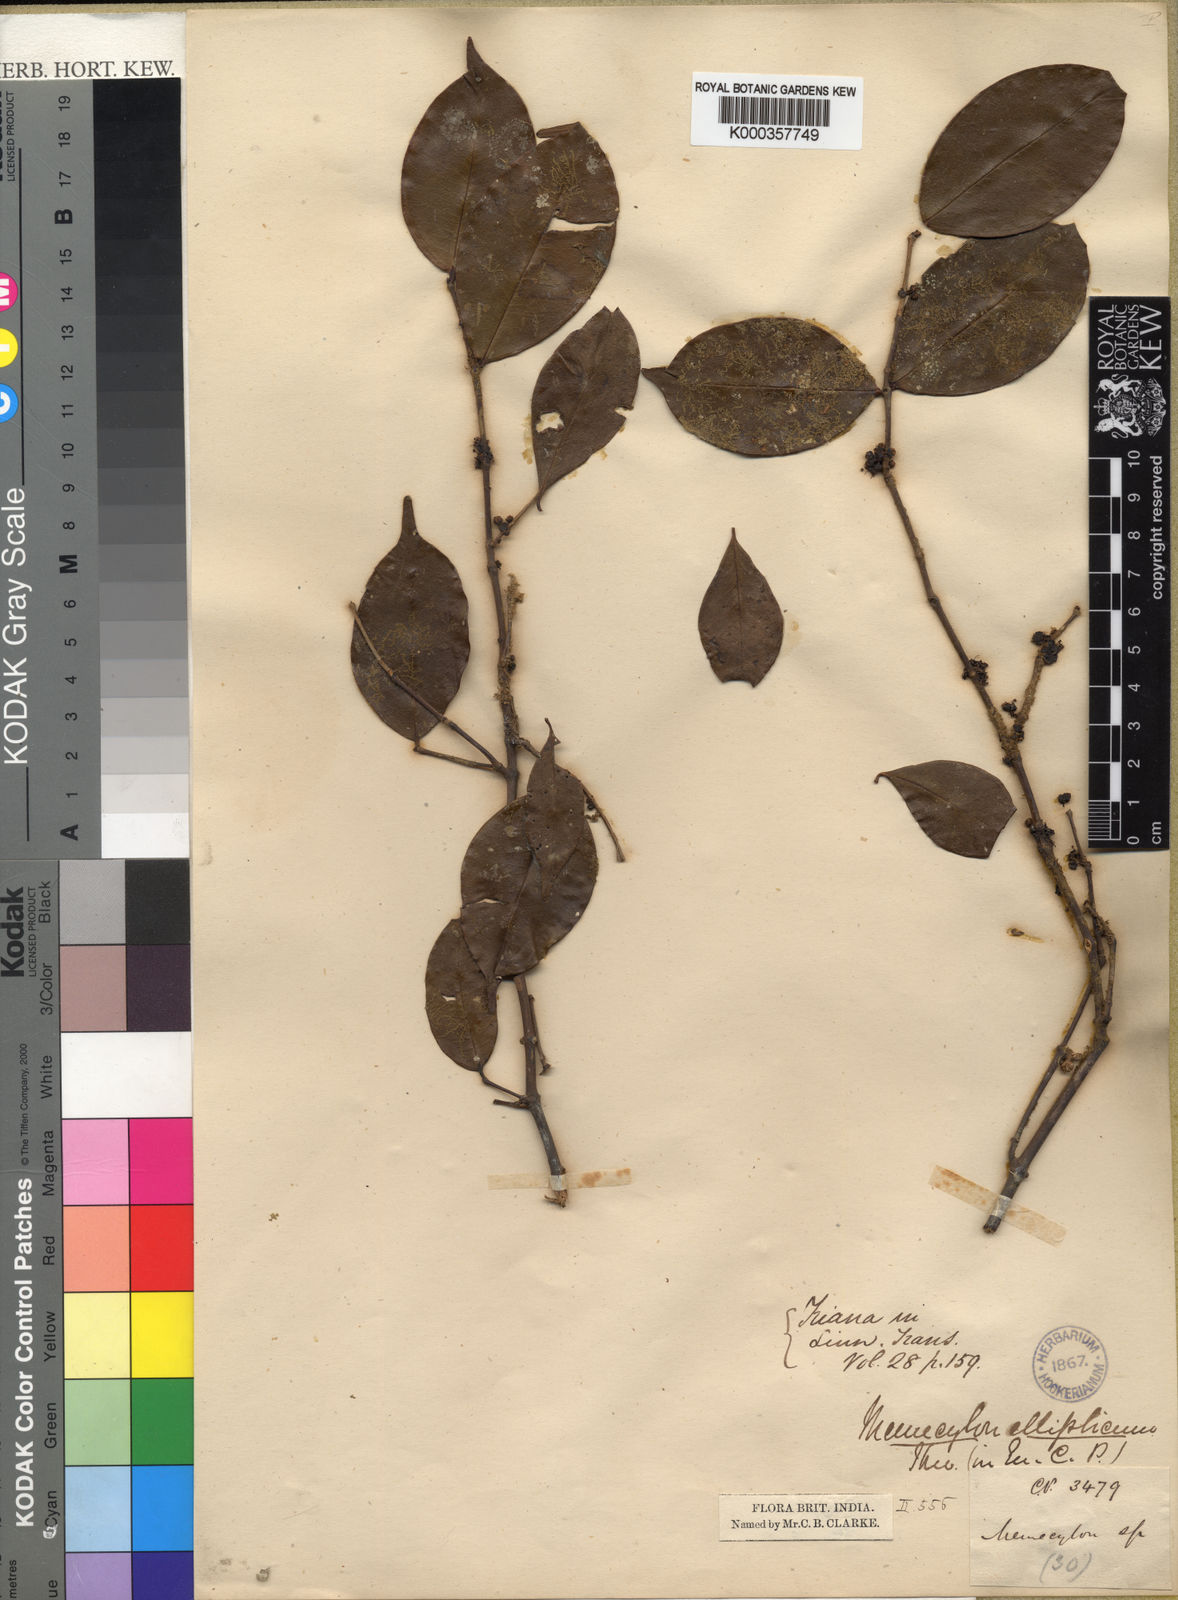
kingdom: Plantae
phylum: Tracheophyta
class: Magnoliopsida
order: Myrtales
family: Melastomataceae
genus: Memecylon
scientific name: Memecylon ellipticum
